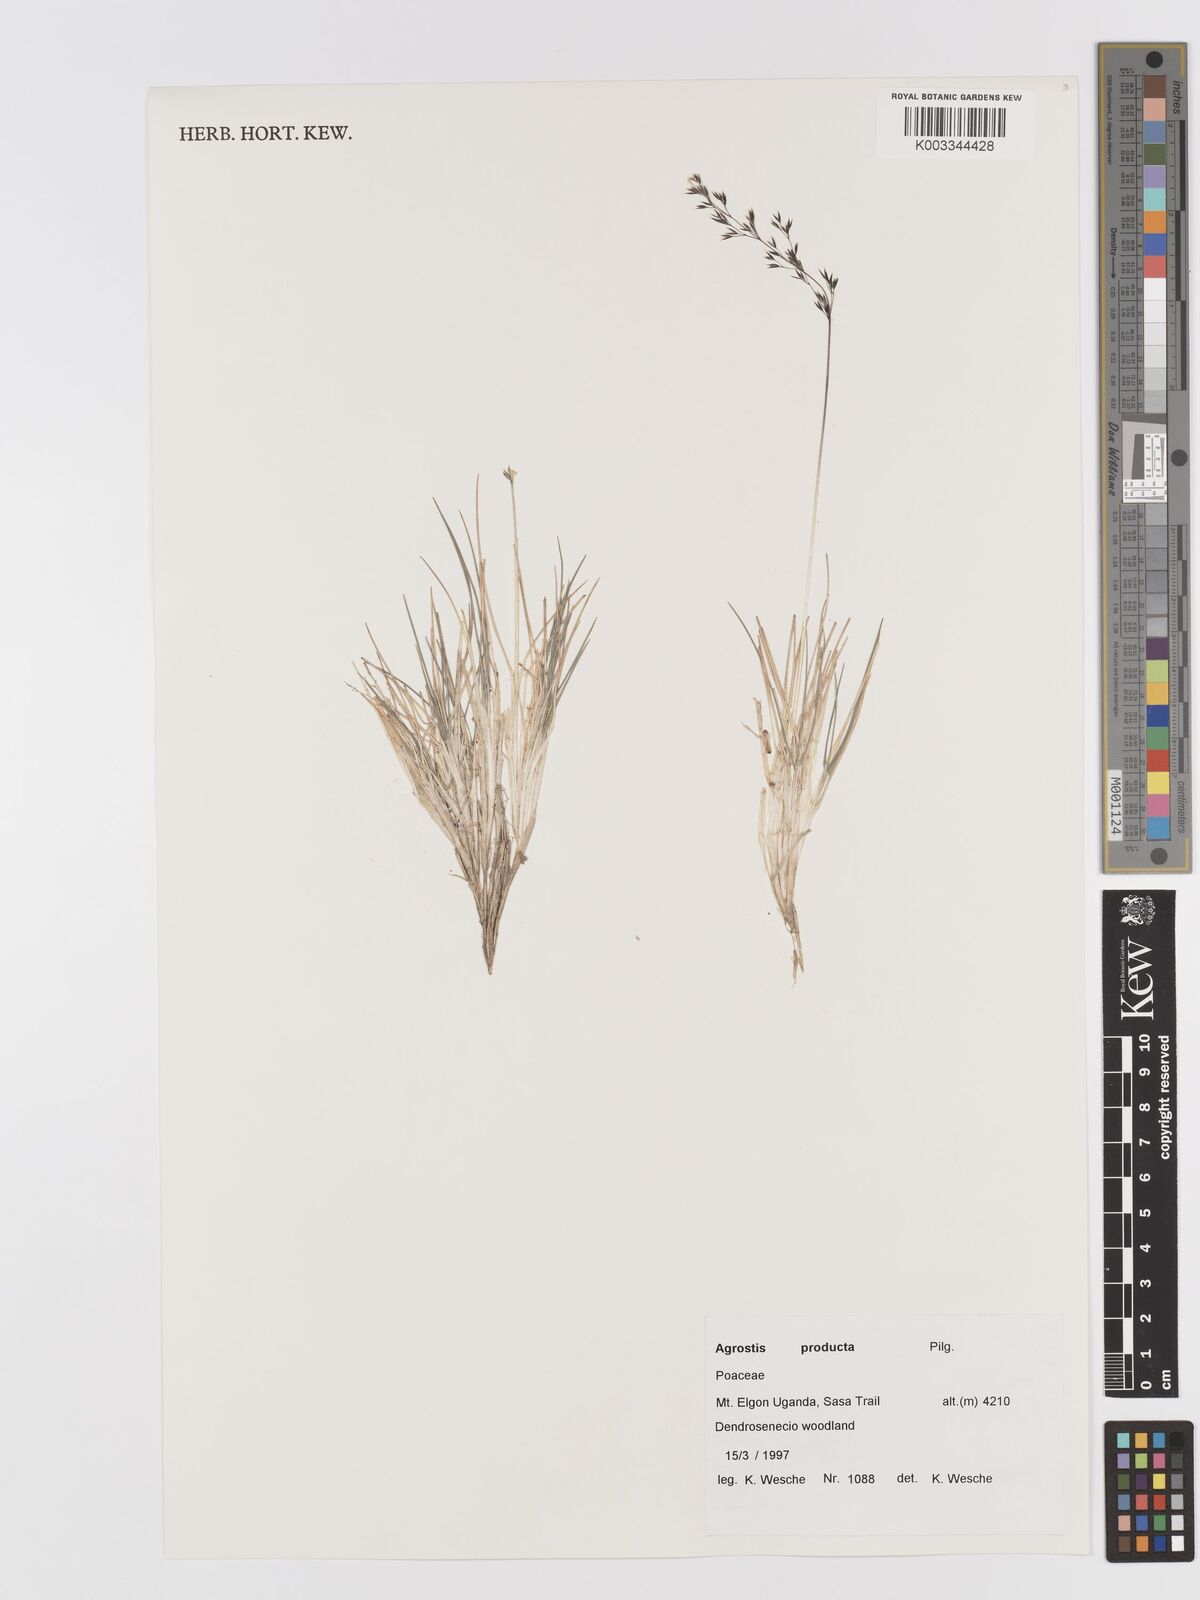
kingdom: Plantae
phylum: Tracheophyta
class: Liliopsida
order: Poales
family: Poaceae
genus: Agrostis
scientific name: Agrostis producta
